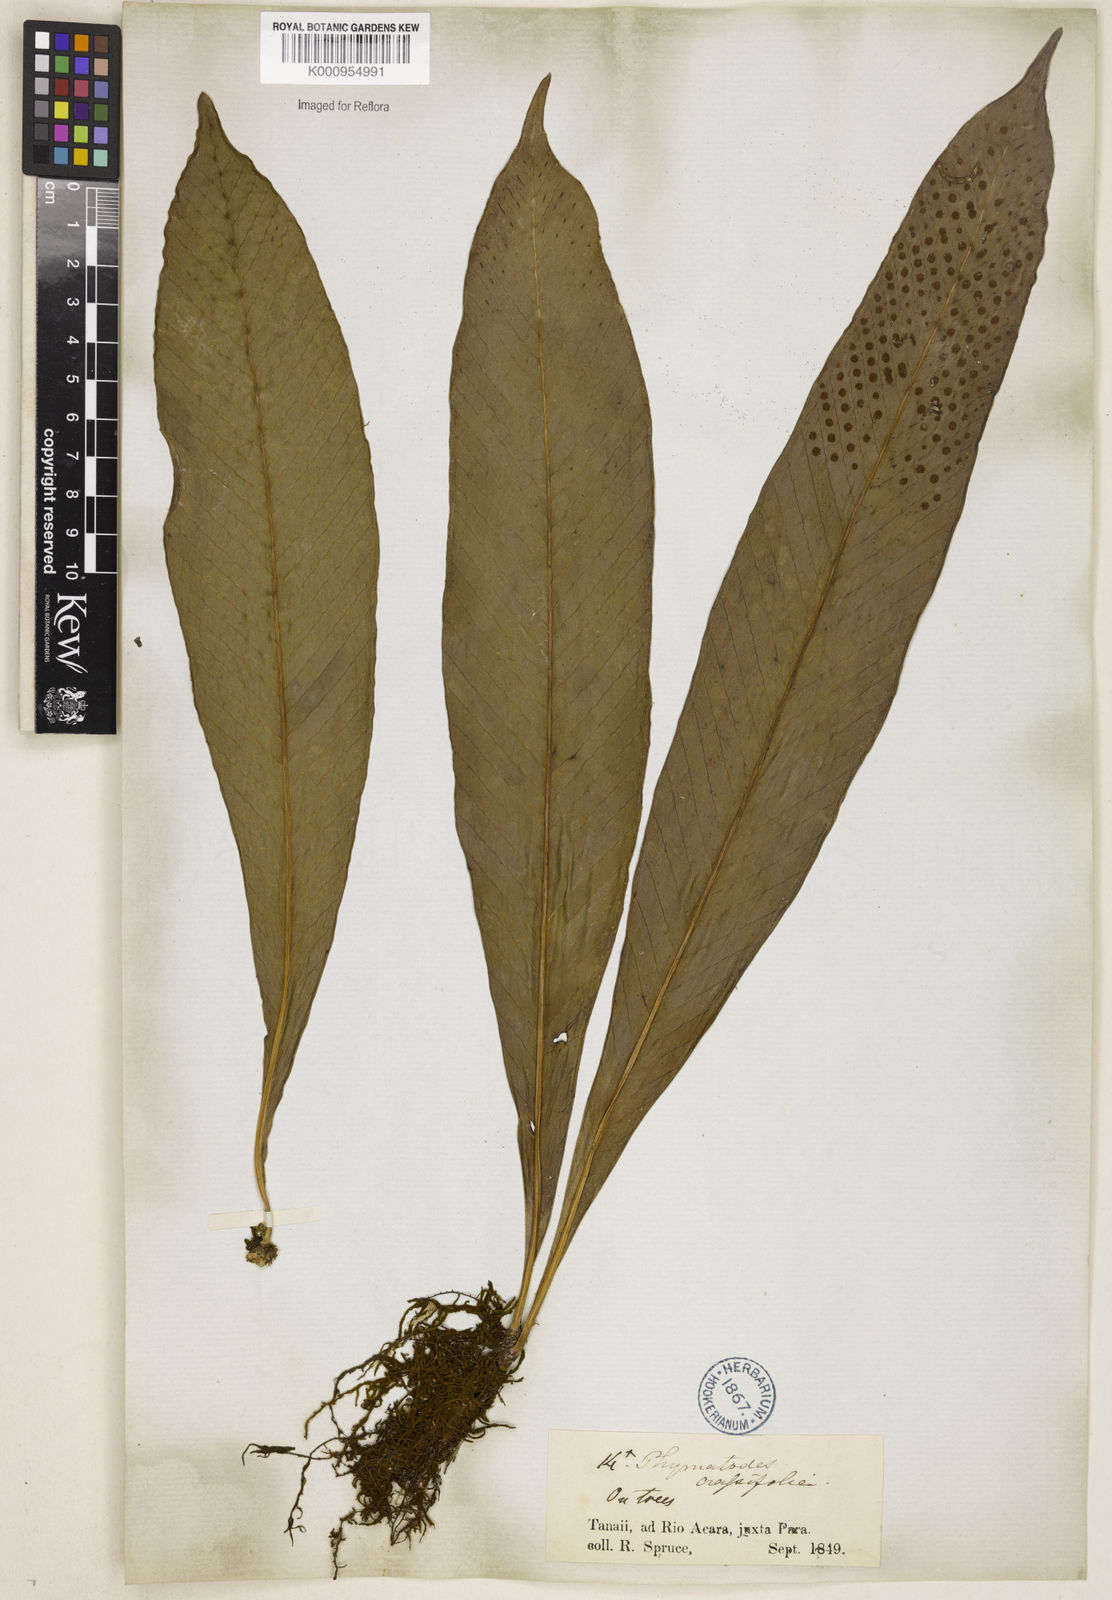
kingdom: Plantae
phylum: Tracheophyta
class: Polypodiopsida
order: Polypodiales
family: Polypodiaceae
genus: Niphidium
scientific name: Niphidium crassifolium
